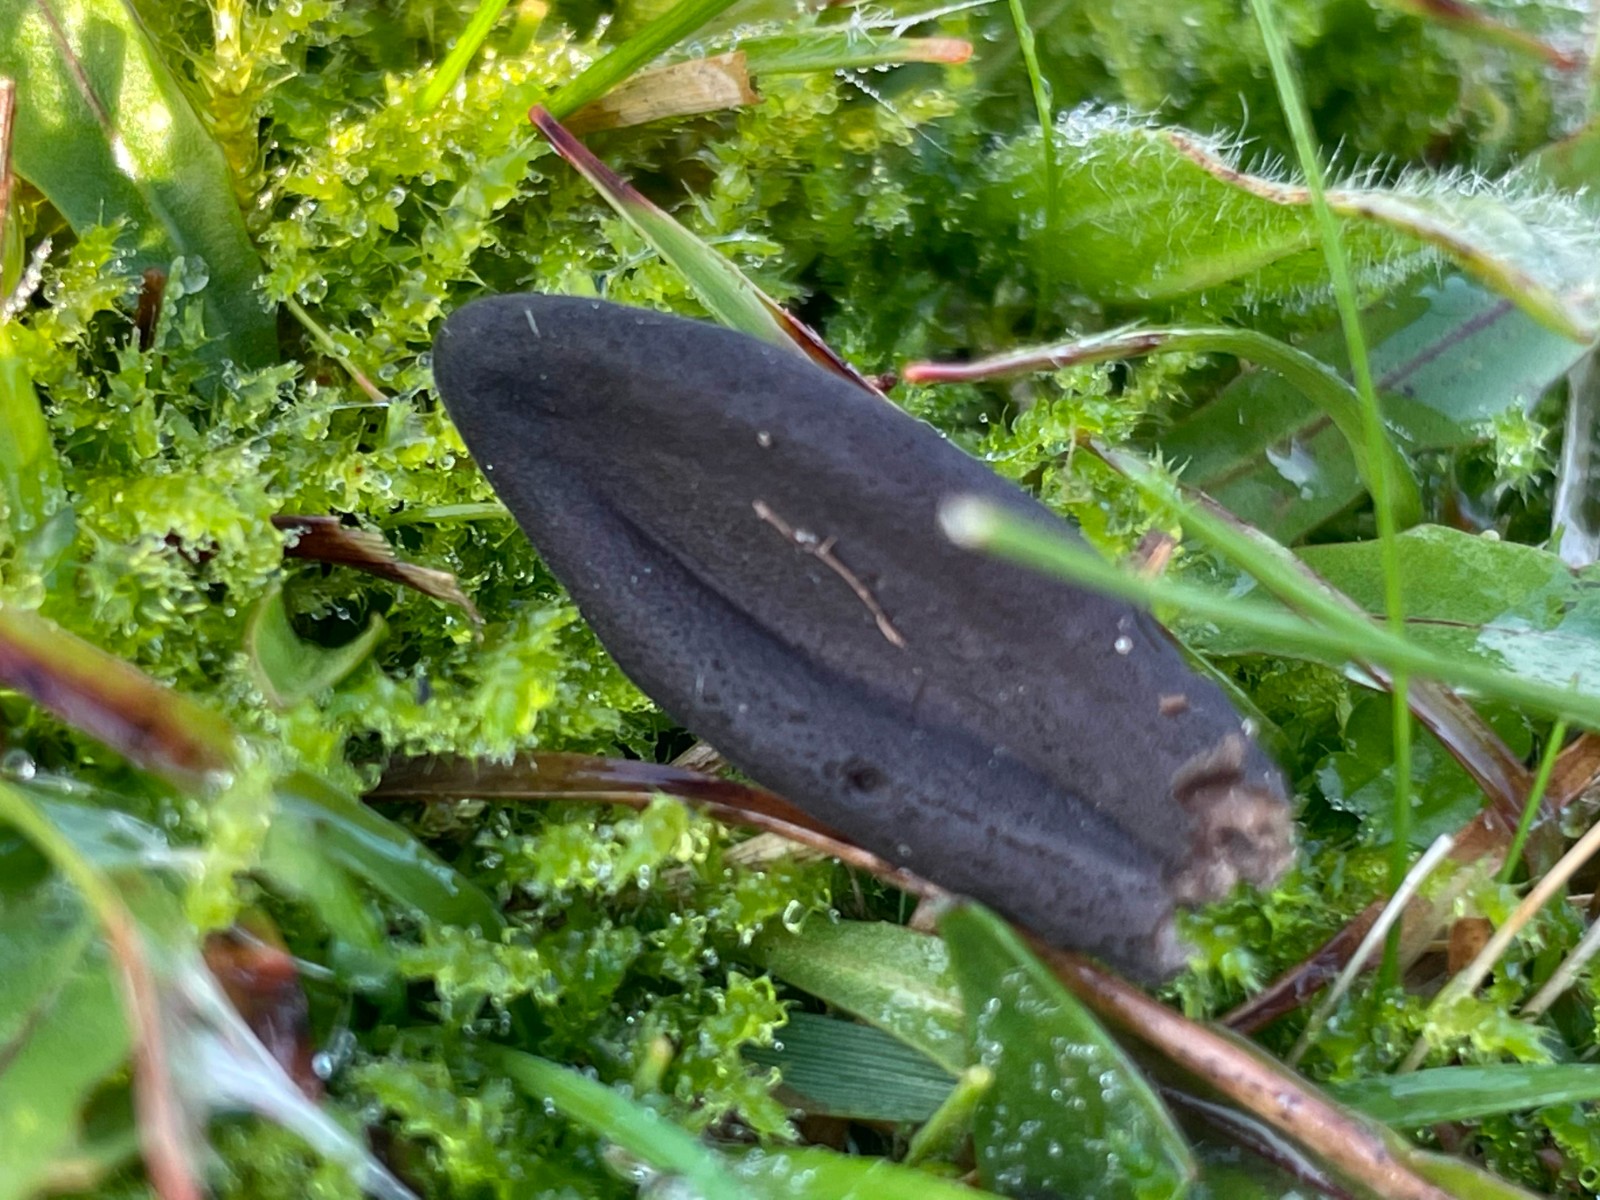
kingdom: Fungi
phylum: Ascomycota
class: Geoglossomycetes
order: Geoglossales
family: Geoglossaceae
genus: Geoglossum
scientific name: Geoglossum
